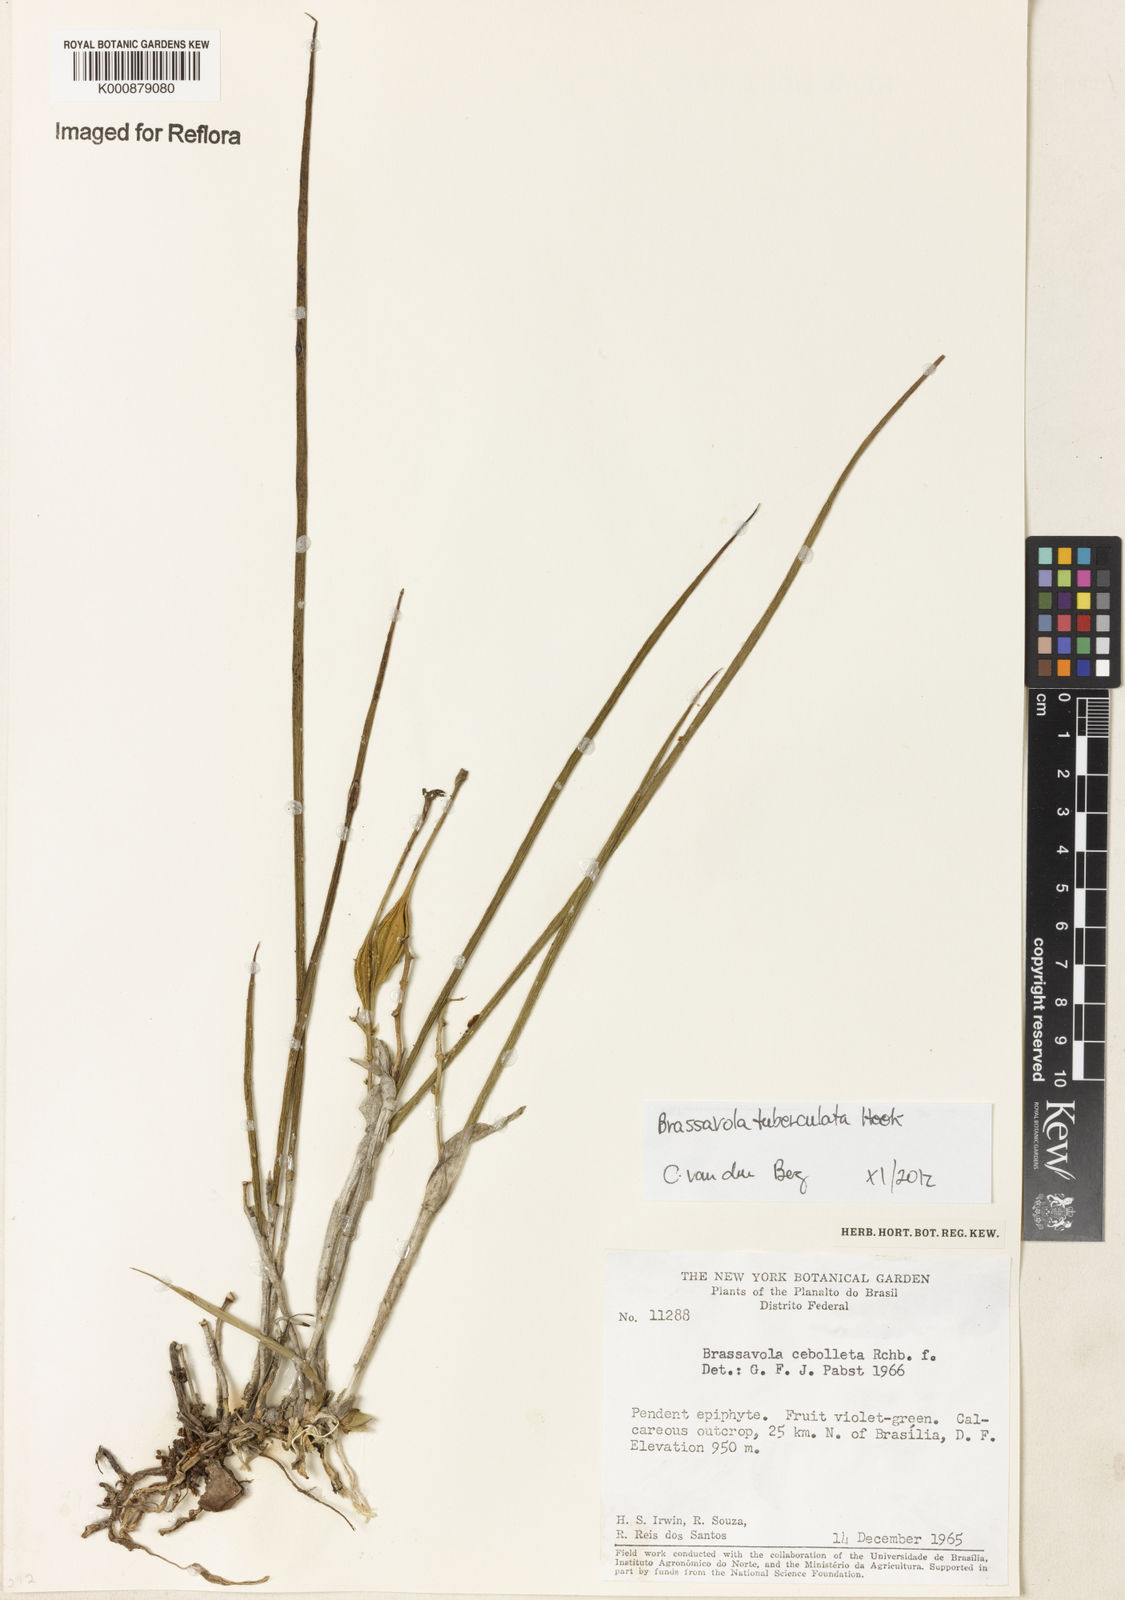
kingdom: Plantae
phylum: Tracheophyta
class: Liliopsida
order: Asparagales
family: Orchidaceae
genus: Brassavola
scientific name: Brassavola tuberculata
